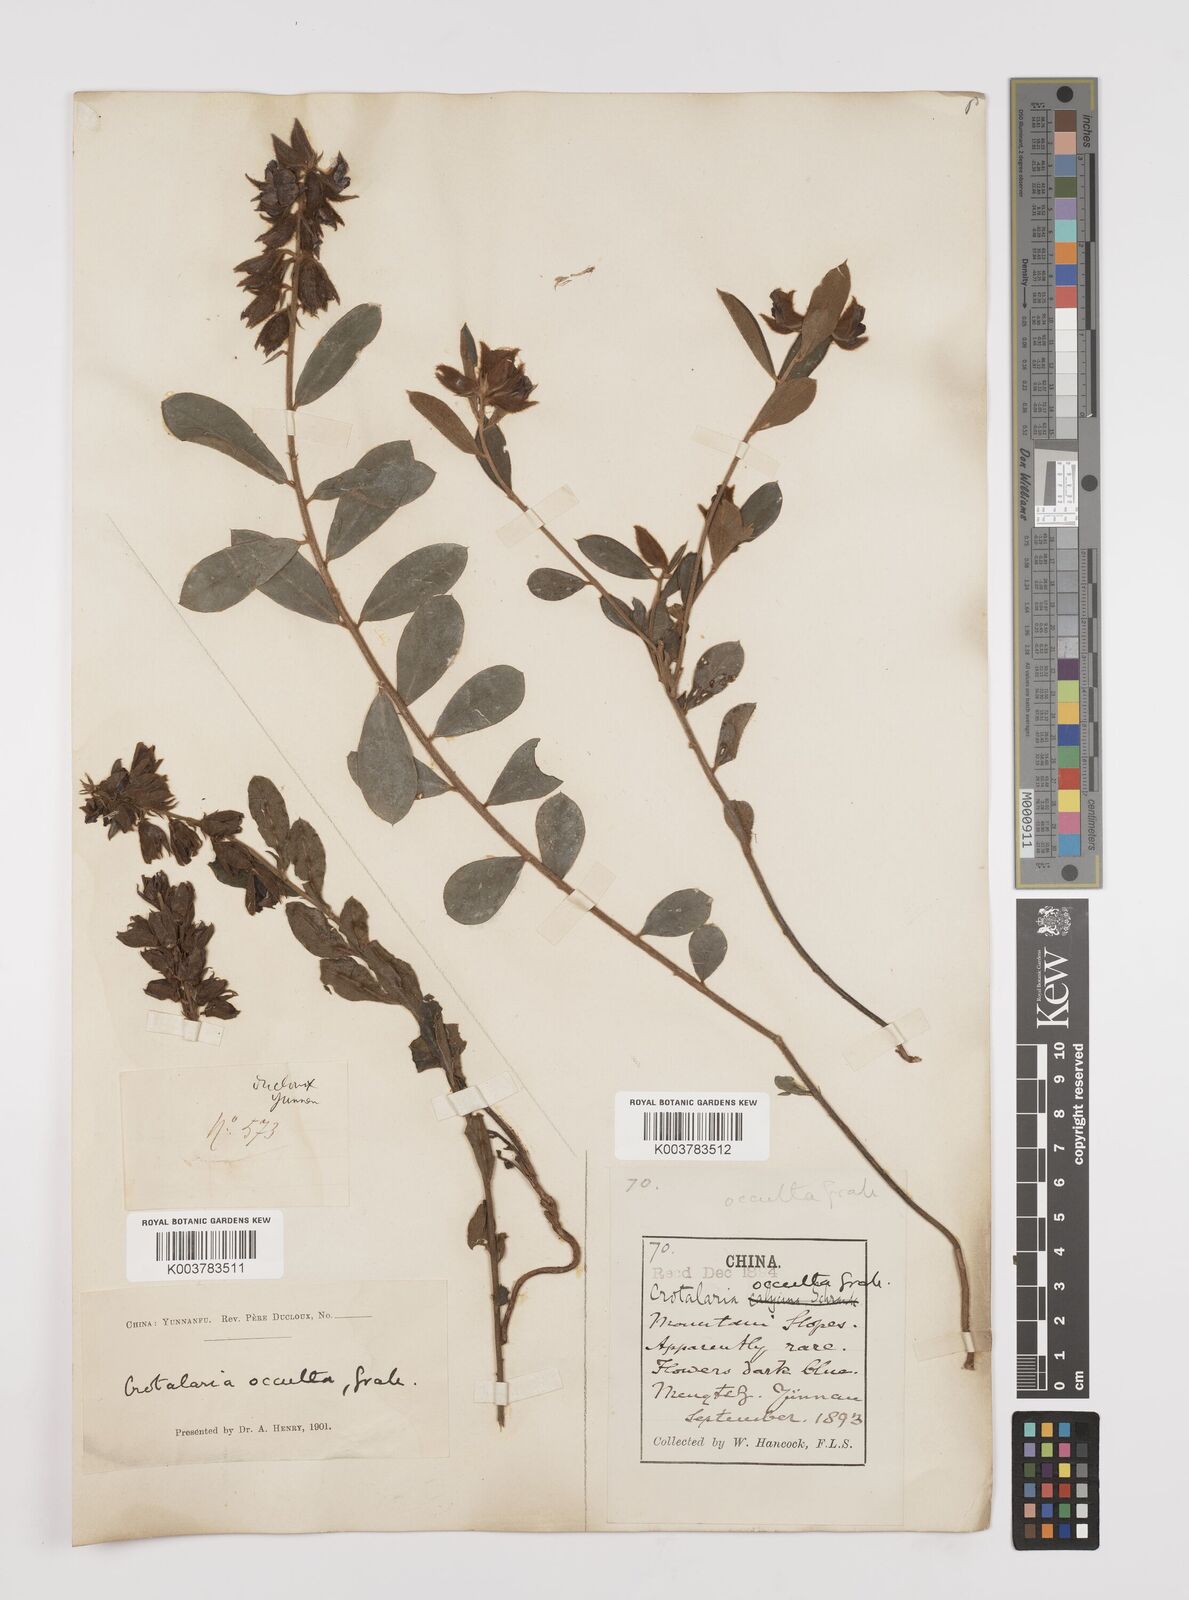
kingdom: Plantae
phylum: Tracheophyta
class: Magnoliopsida
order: Fabales
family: Fabaceae
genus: Crotalaria
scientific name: Crotalaria occulta
